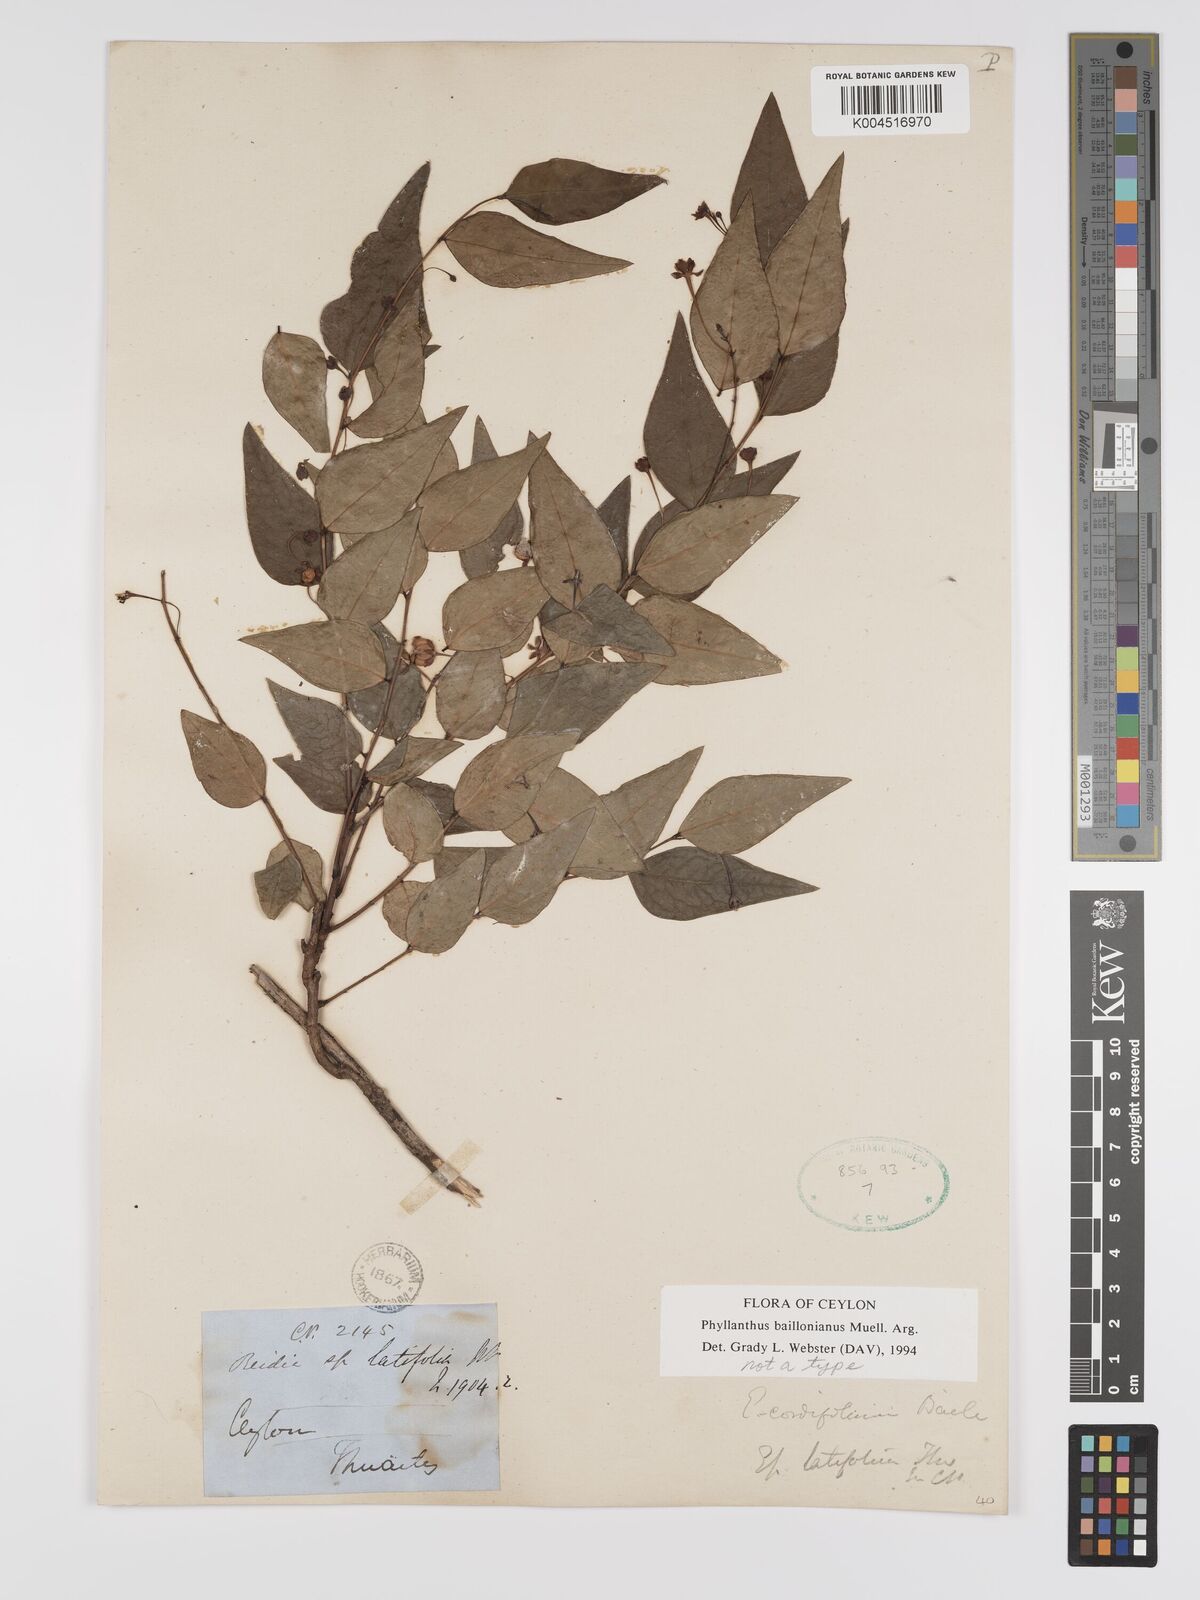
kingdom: Plantae
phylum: Tracheophyta
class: Magnoliopsida
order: Malpighiales
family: Phyllanthaceae
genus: Phyllanthus
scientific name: Phyllanthus baillonianus
